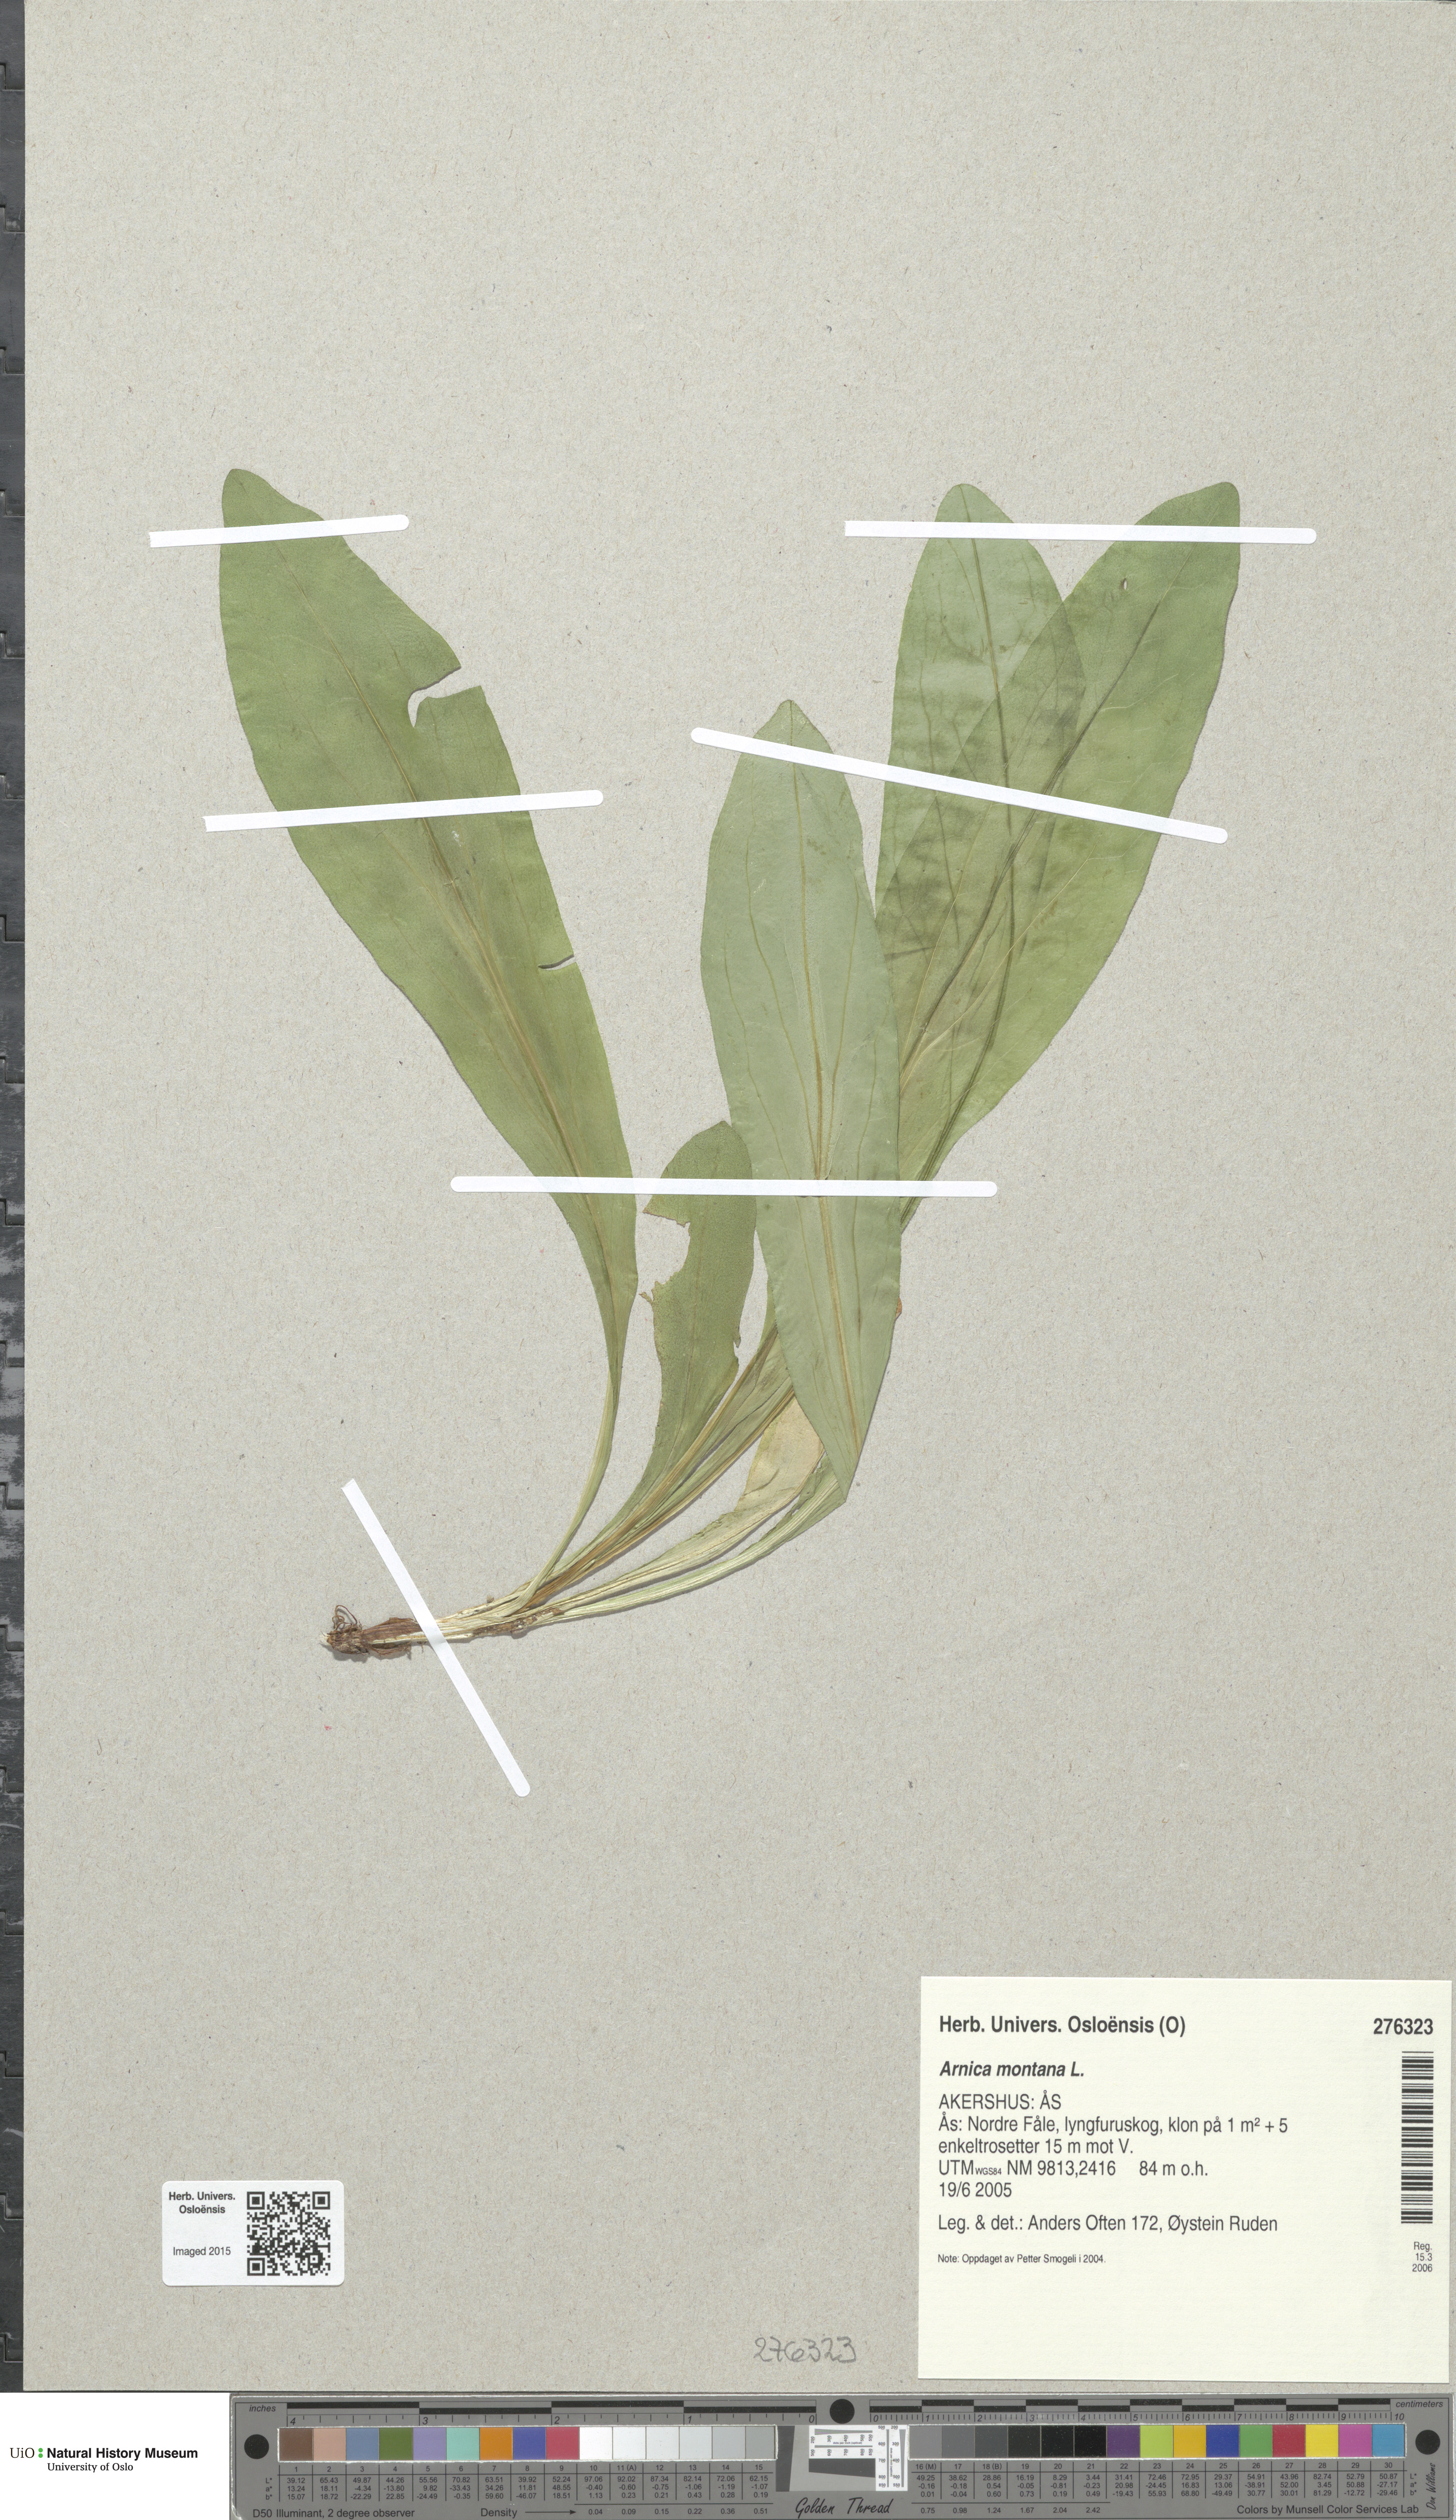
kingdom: Plantae
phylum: Tracheophyta
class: Magnoliopsida
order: Asterales
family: Asteraceae
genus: Arnica
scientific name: Arnica montana
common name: Leopard's bane
